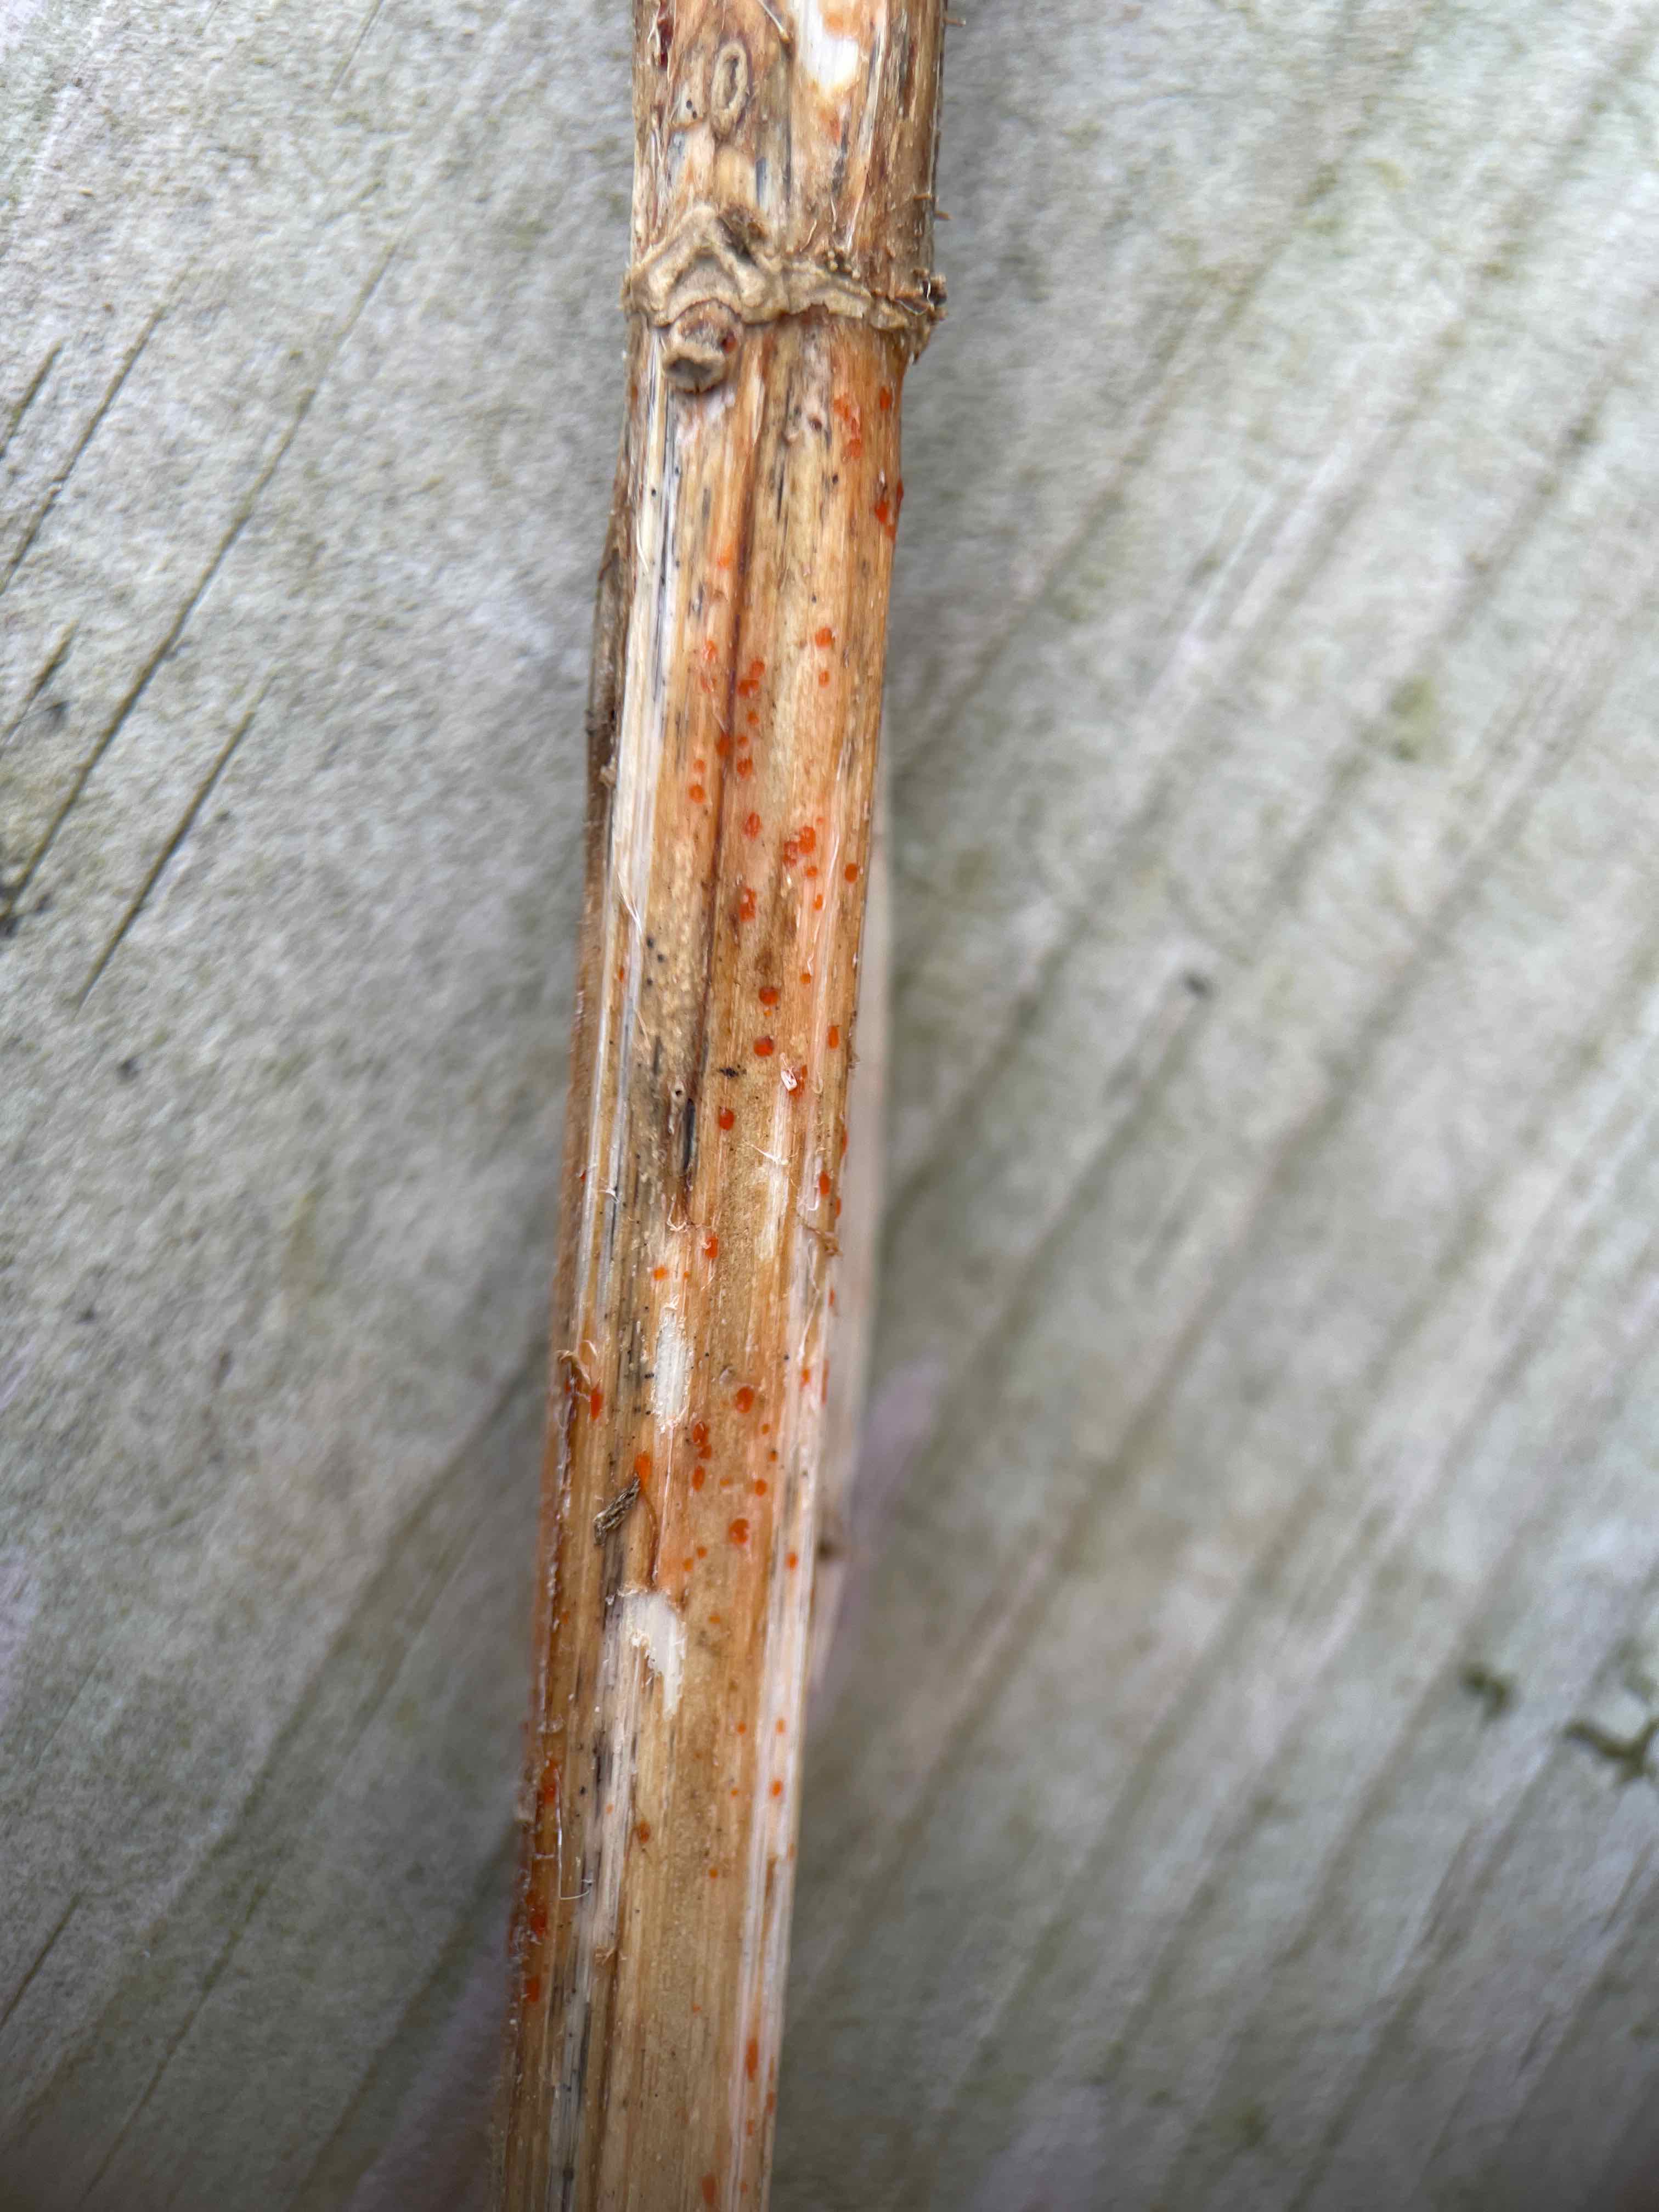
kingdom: Fungi
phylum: Ascomycota
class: Leotiomycetes
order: Helotiales
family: Calloriaceae
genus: Calloria
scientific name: Calloria urticae
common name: nælde-orangeskive
